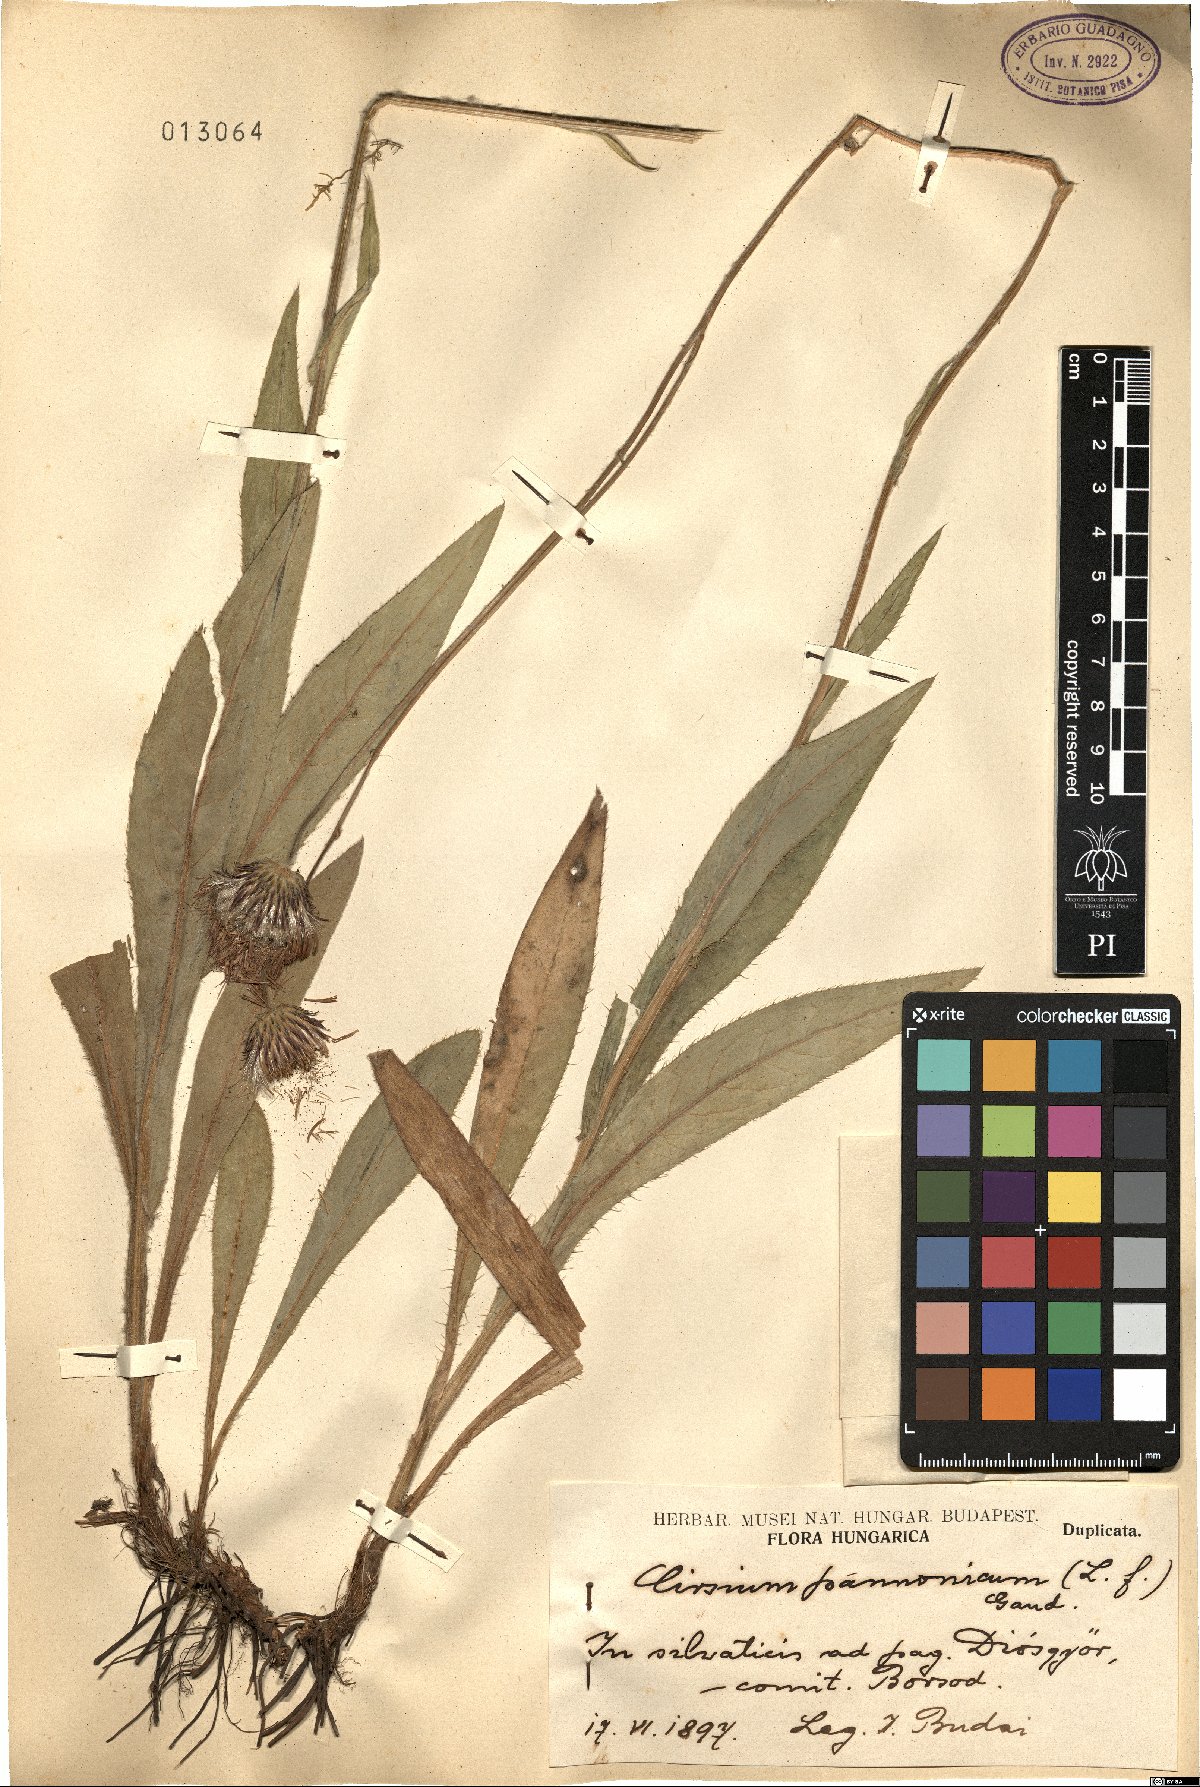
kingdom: Plantae
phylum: Tracheophyta
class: Magnoliopsida
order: Asterales
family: Asteraceae
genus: Cirsium
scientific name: Cirsium pannonicum
